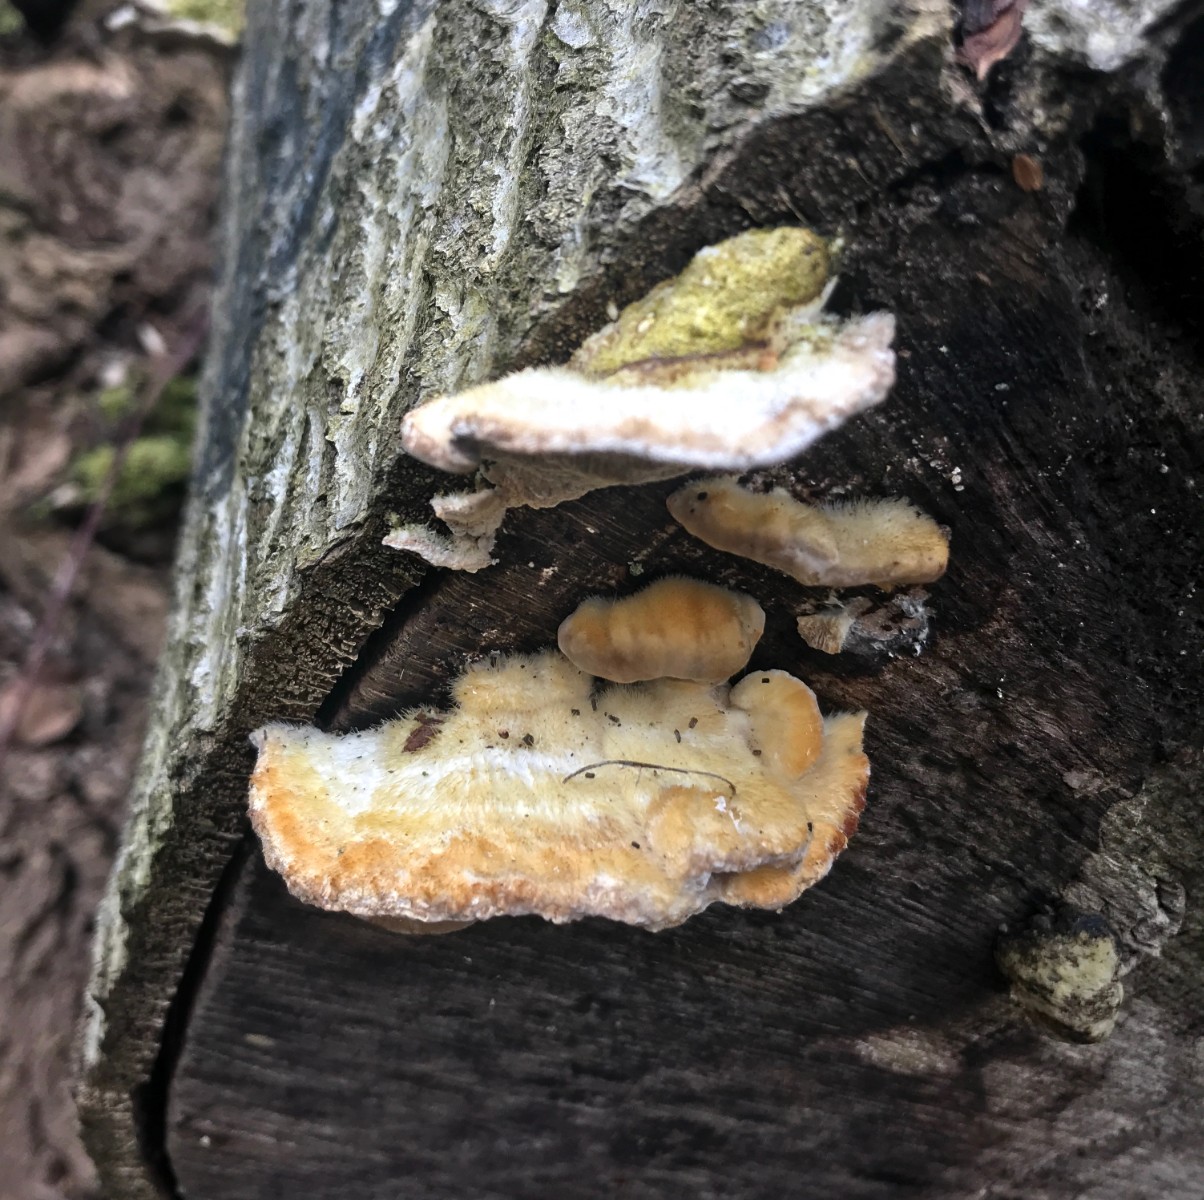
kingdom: Fungi
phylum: Basidiomycota
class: Agaricomycetes
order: Polyporales
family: Polyporaceae
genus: Trametes
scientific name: Trametes hirsuta
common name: håret læderporesvamp
